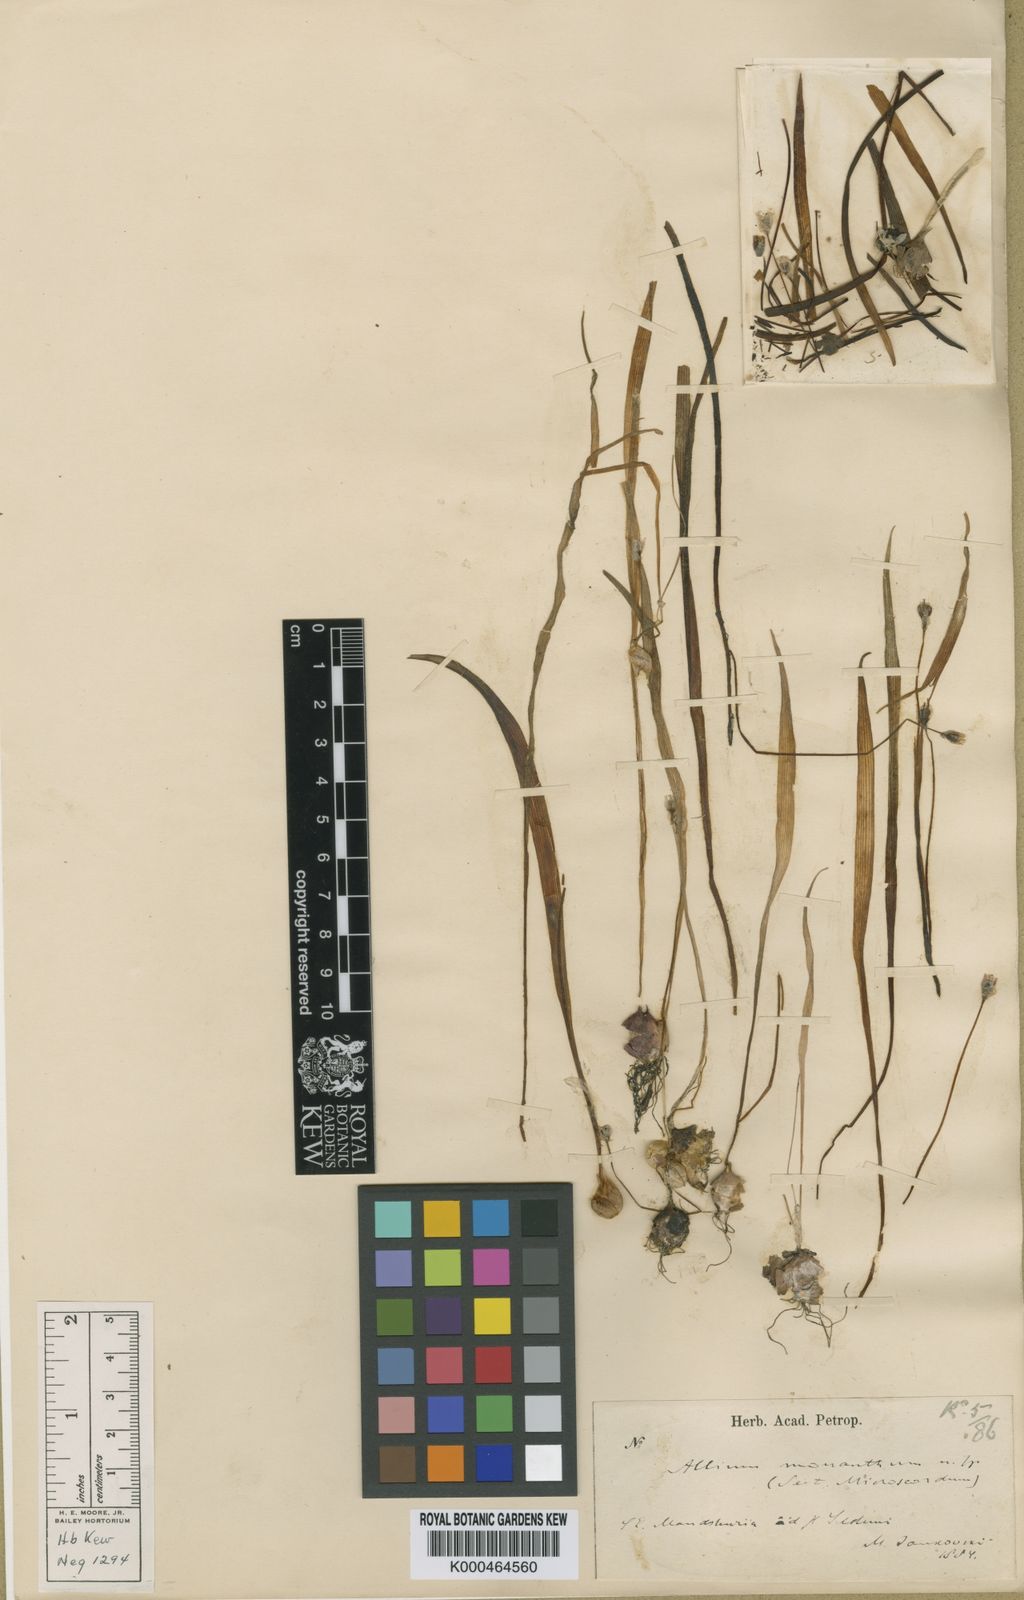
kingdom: Plantae
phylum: Tracheophyta
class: Liliopsida
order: Asparagales
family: Amaryllidaceae
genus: Allium
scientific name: Allium macleanii
